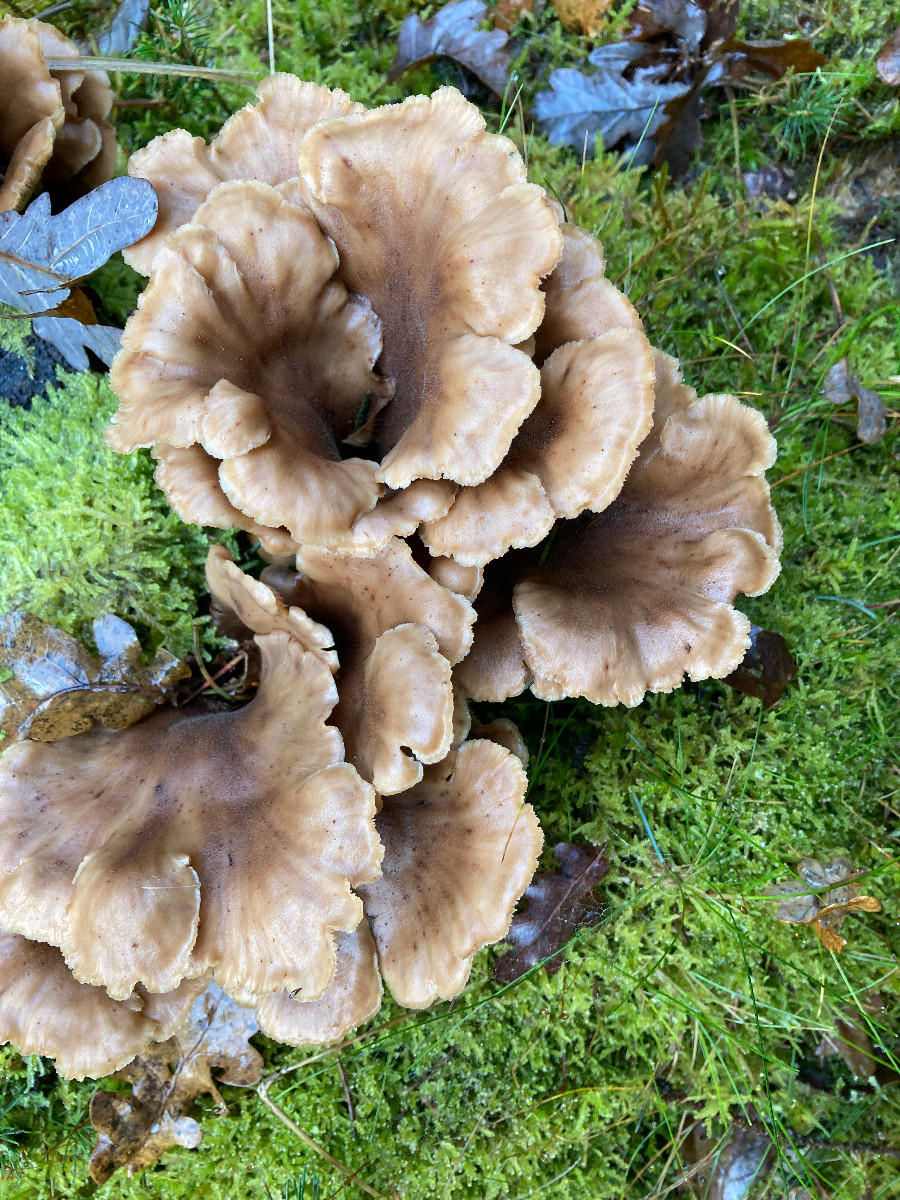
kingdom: Fungi
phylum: Basidiomycota
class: Agaricomycetes
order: Russulales
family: Auriscalpiaceae
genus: Lentinellus
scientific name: Lentinellus cochleatus
